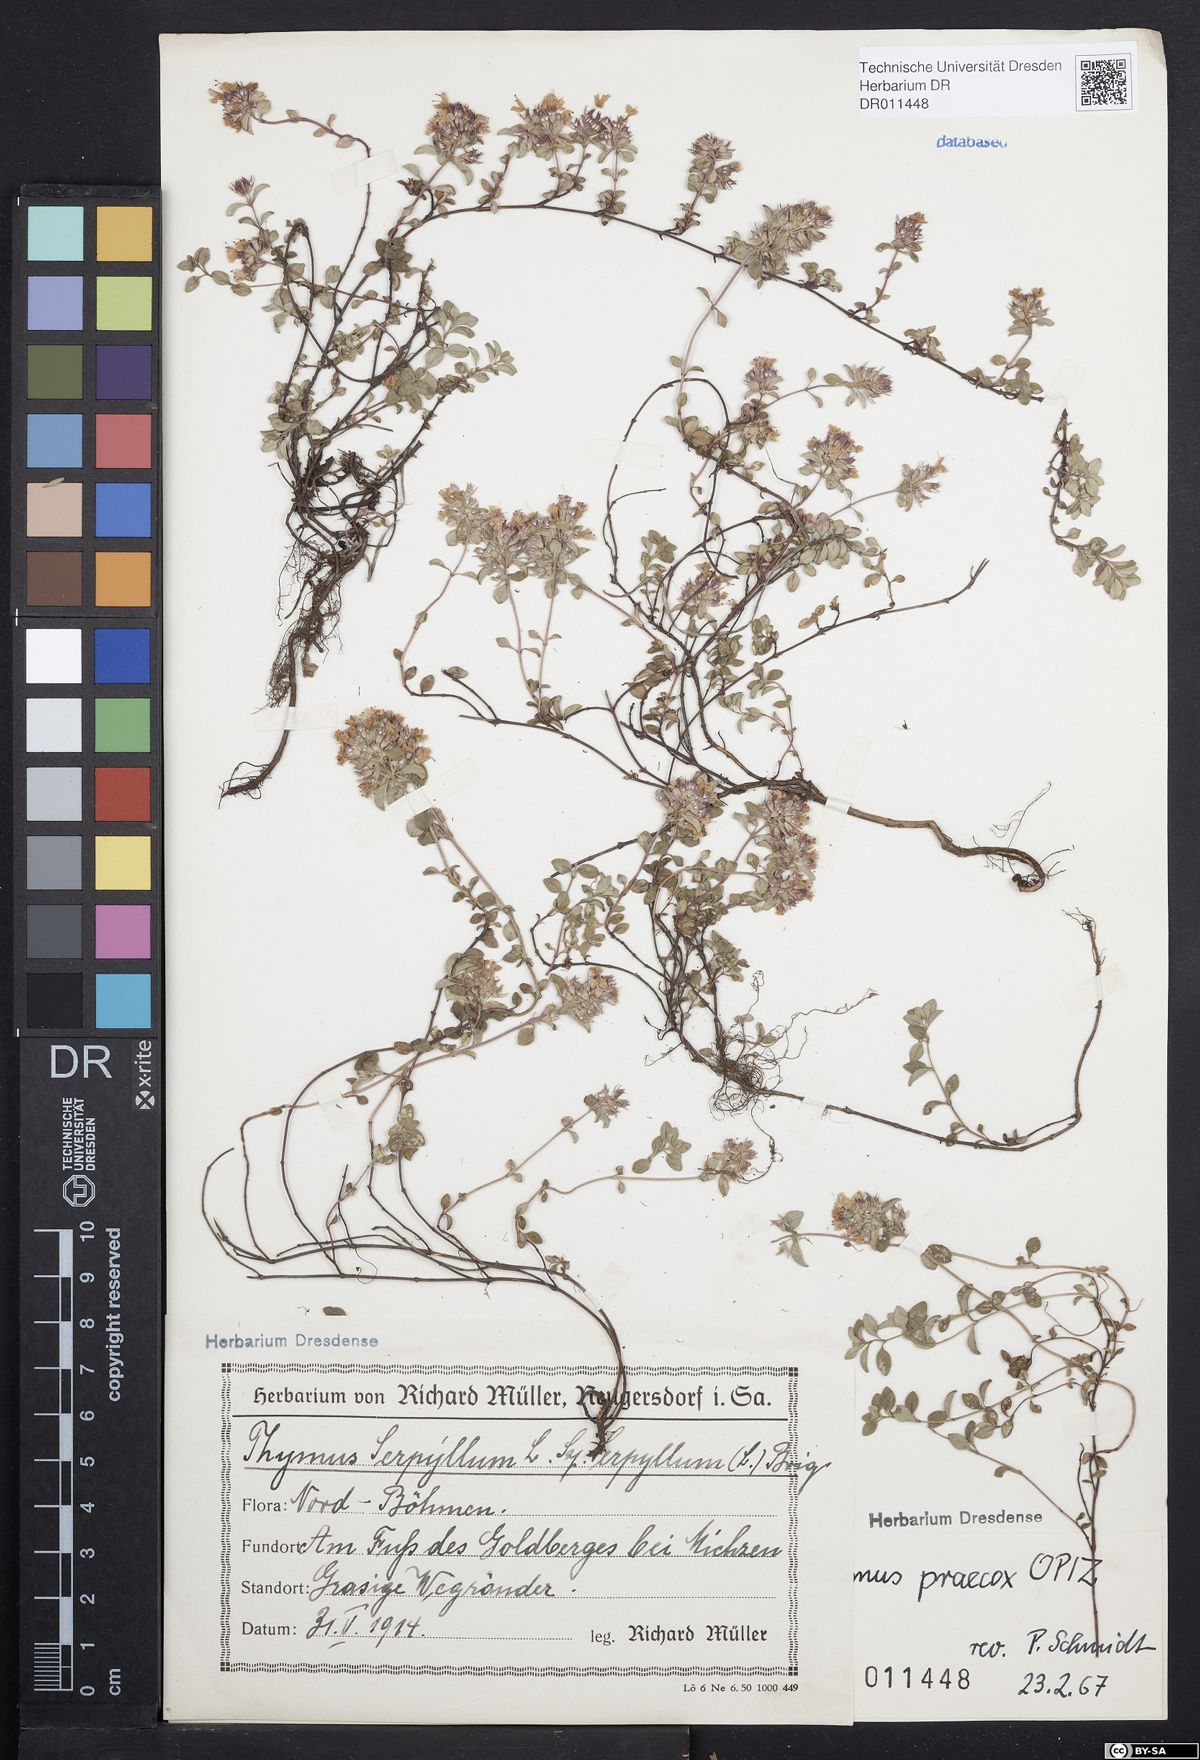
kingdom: Plantae
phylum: Tracheophyta
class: Magnoliopsida
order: Lamiales
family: Lamiaceae
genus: Thymus
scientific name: Thymus praecox
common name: Wild thyme
